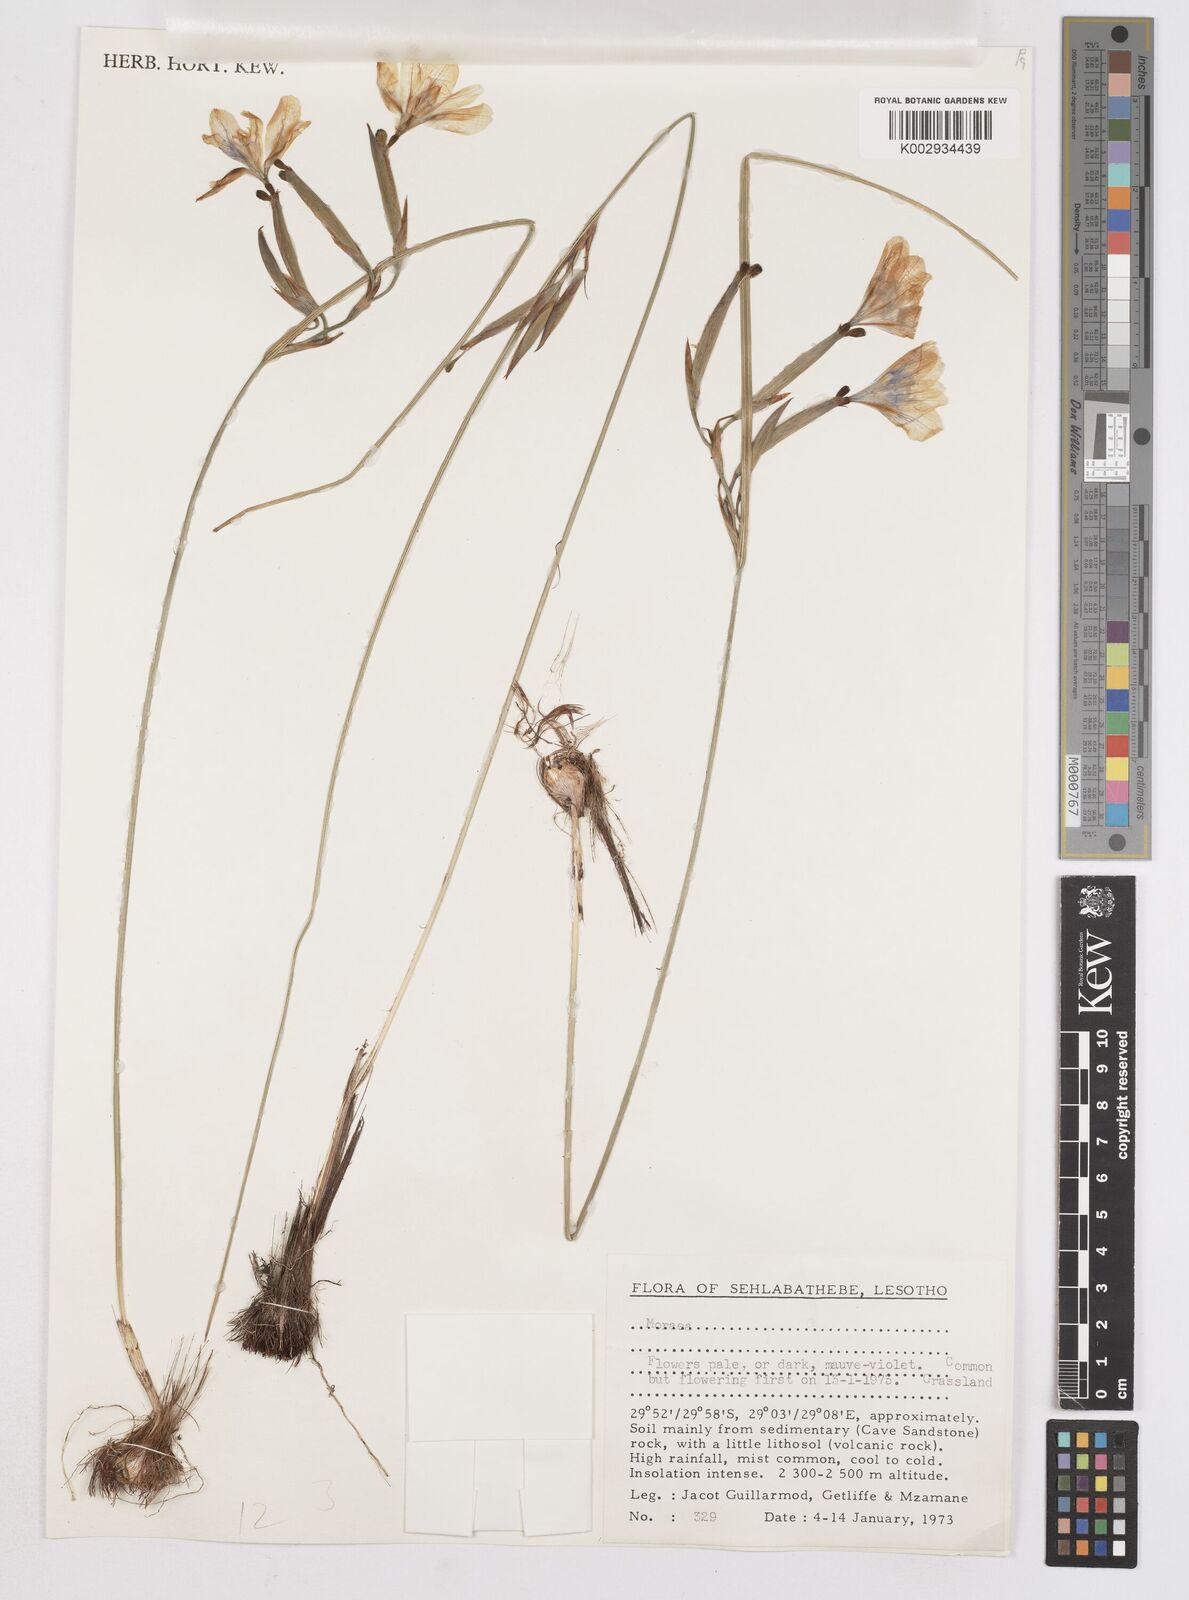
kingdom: Plantae
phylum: Tracheophyta
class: Liliopsida
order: Asparagales
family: Iridaceae
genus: Moraea
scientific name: Moraea inclinata
